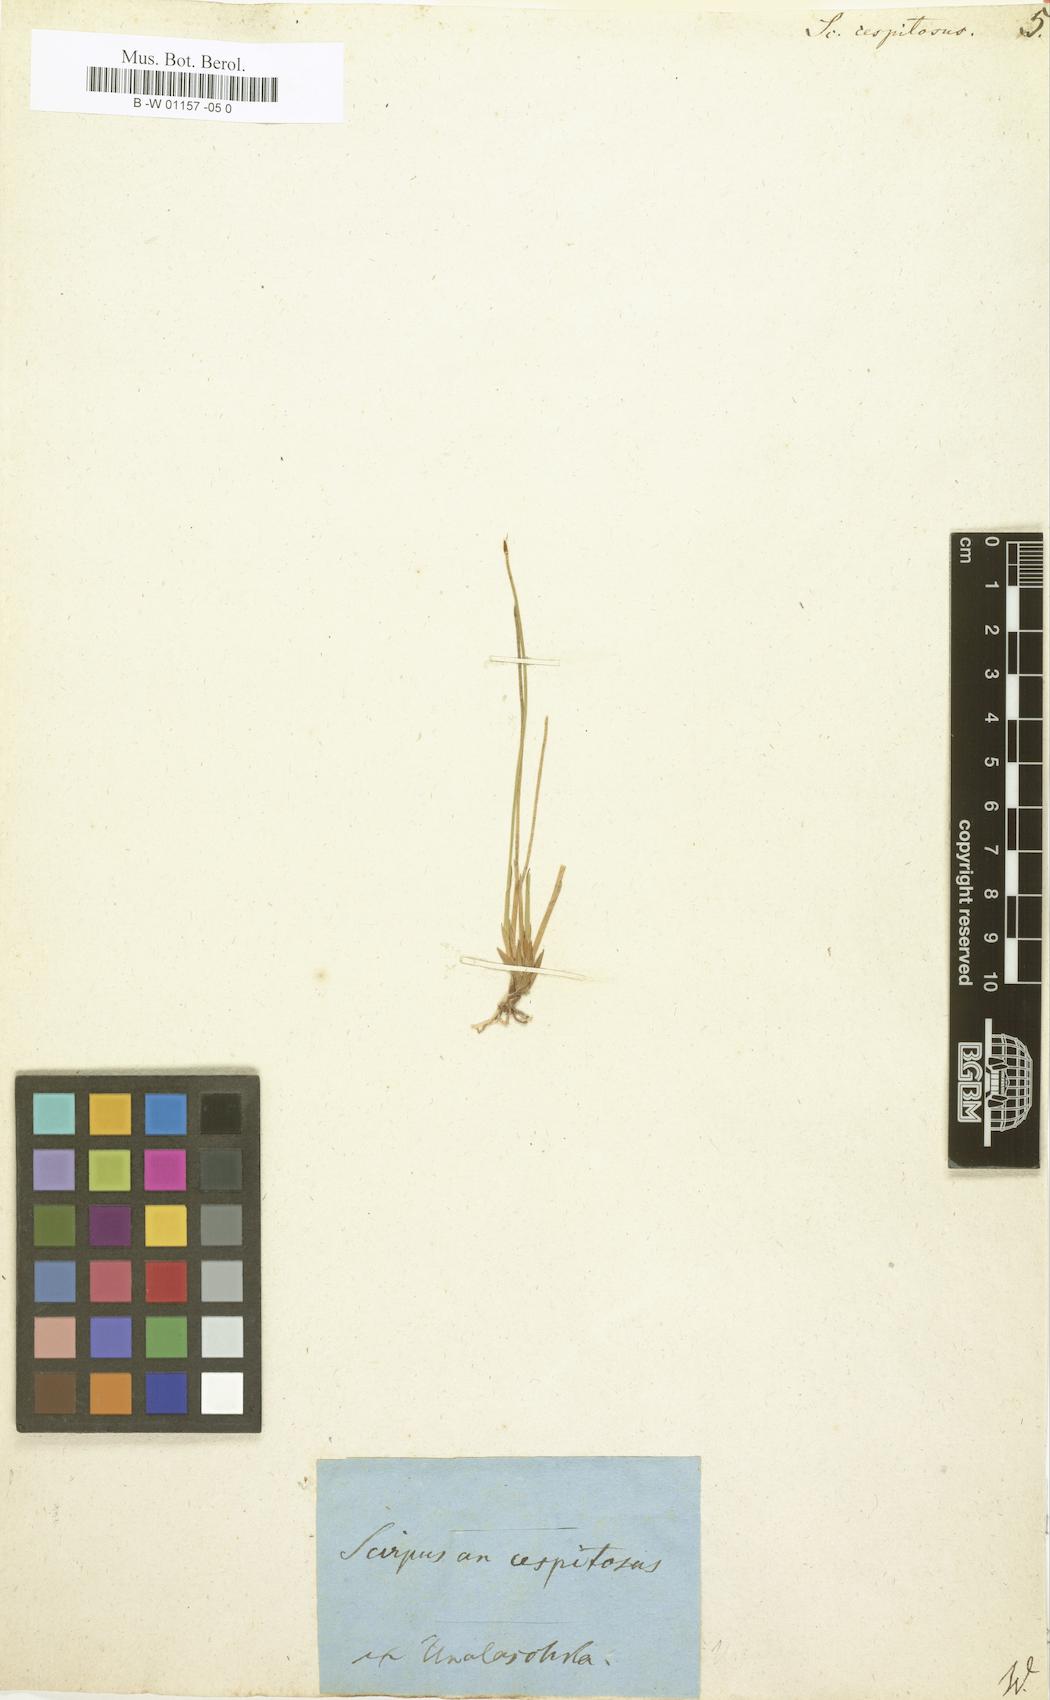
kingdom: Plantae
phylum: Tracheophyta
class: Liliopsida
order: Poales
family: Cyperaceae
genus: Trichophorum
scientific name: Trichophorum cespitosum
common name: Cespitose bulrush
